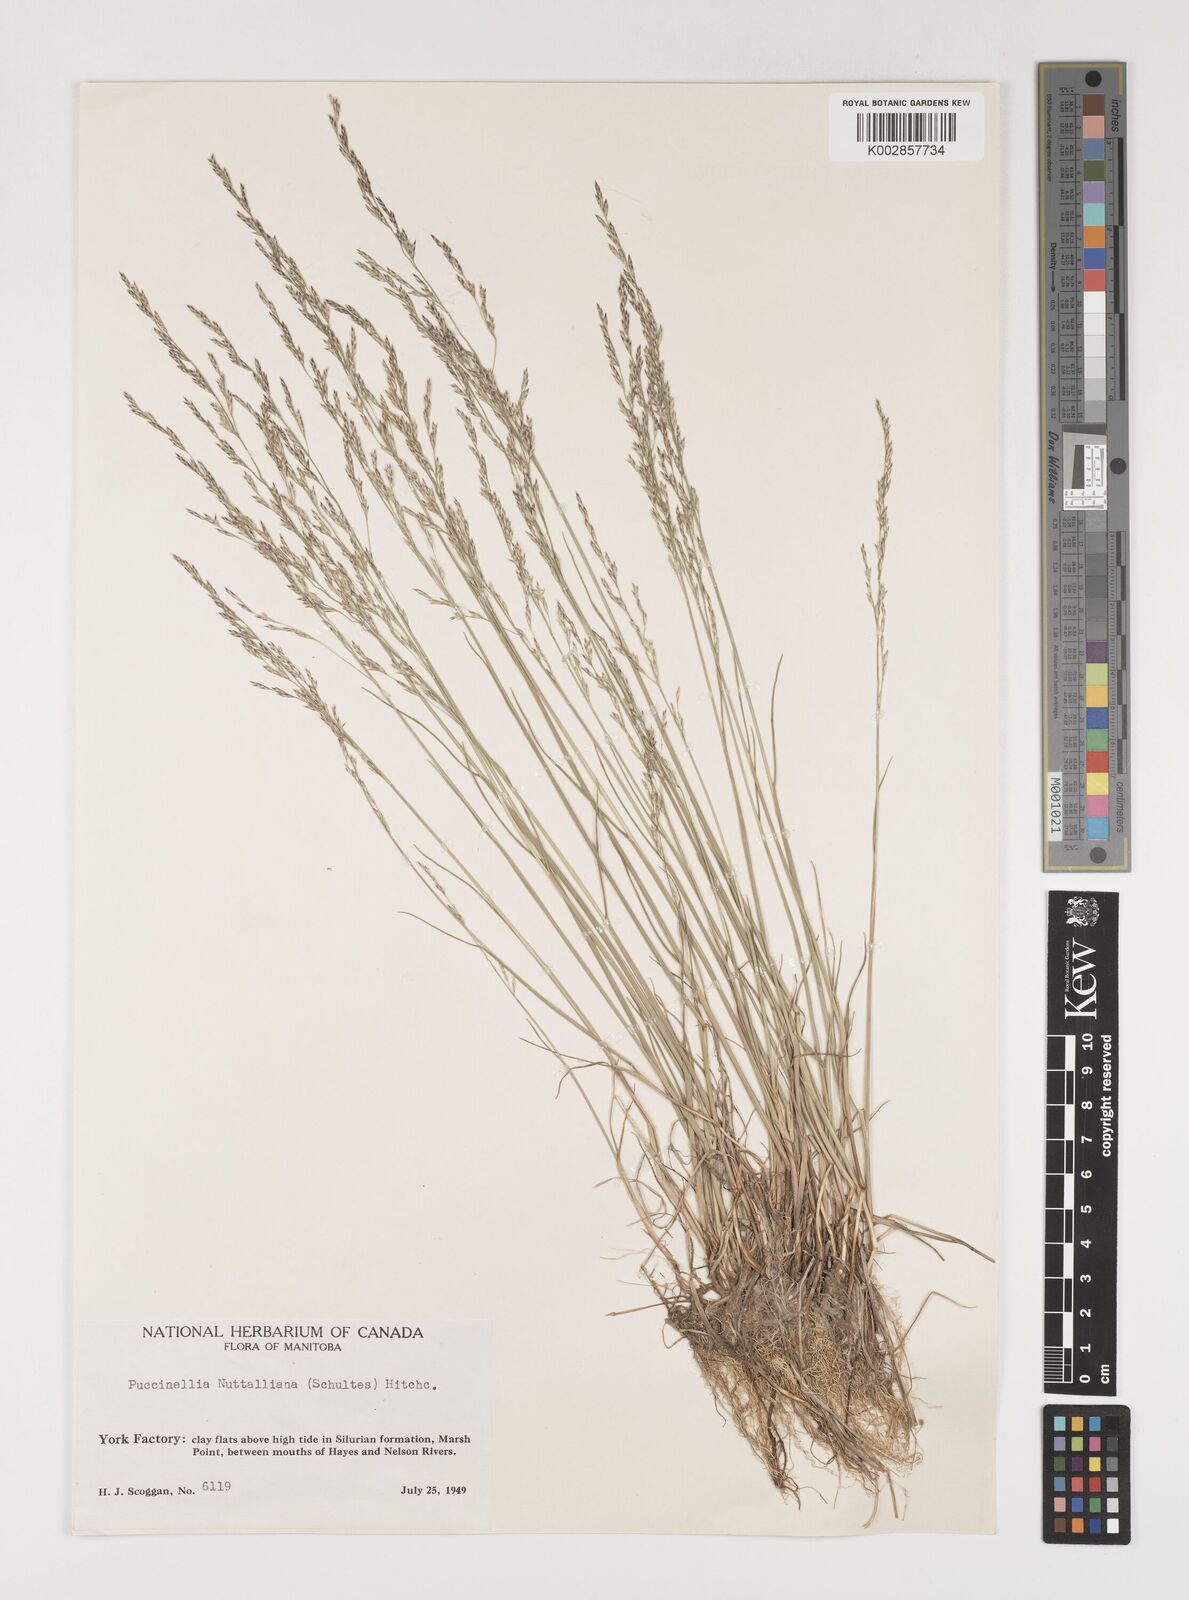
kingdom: Plantae
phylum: Tracheophyta
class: Liliopsida
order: Poales
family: Poaceae
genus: Puccinellia
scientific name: Puccinellia nuttalliana
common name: Nuttall's alkali grass
